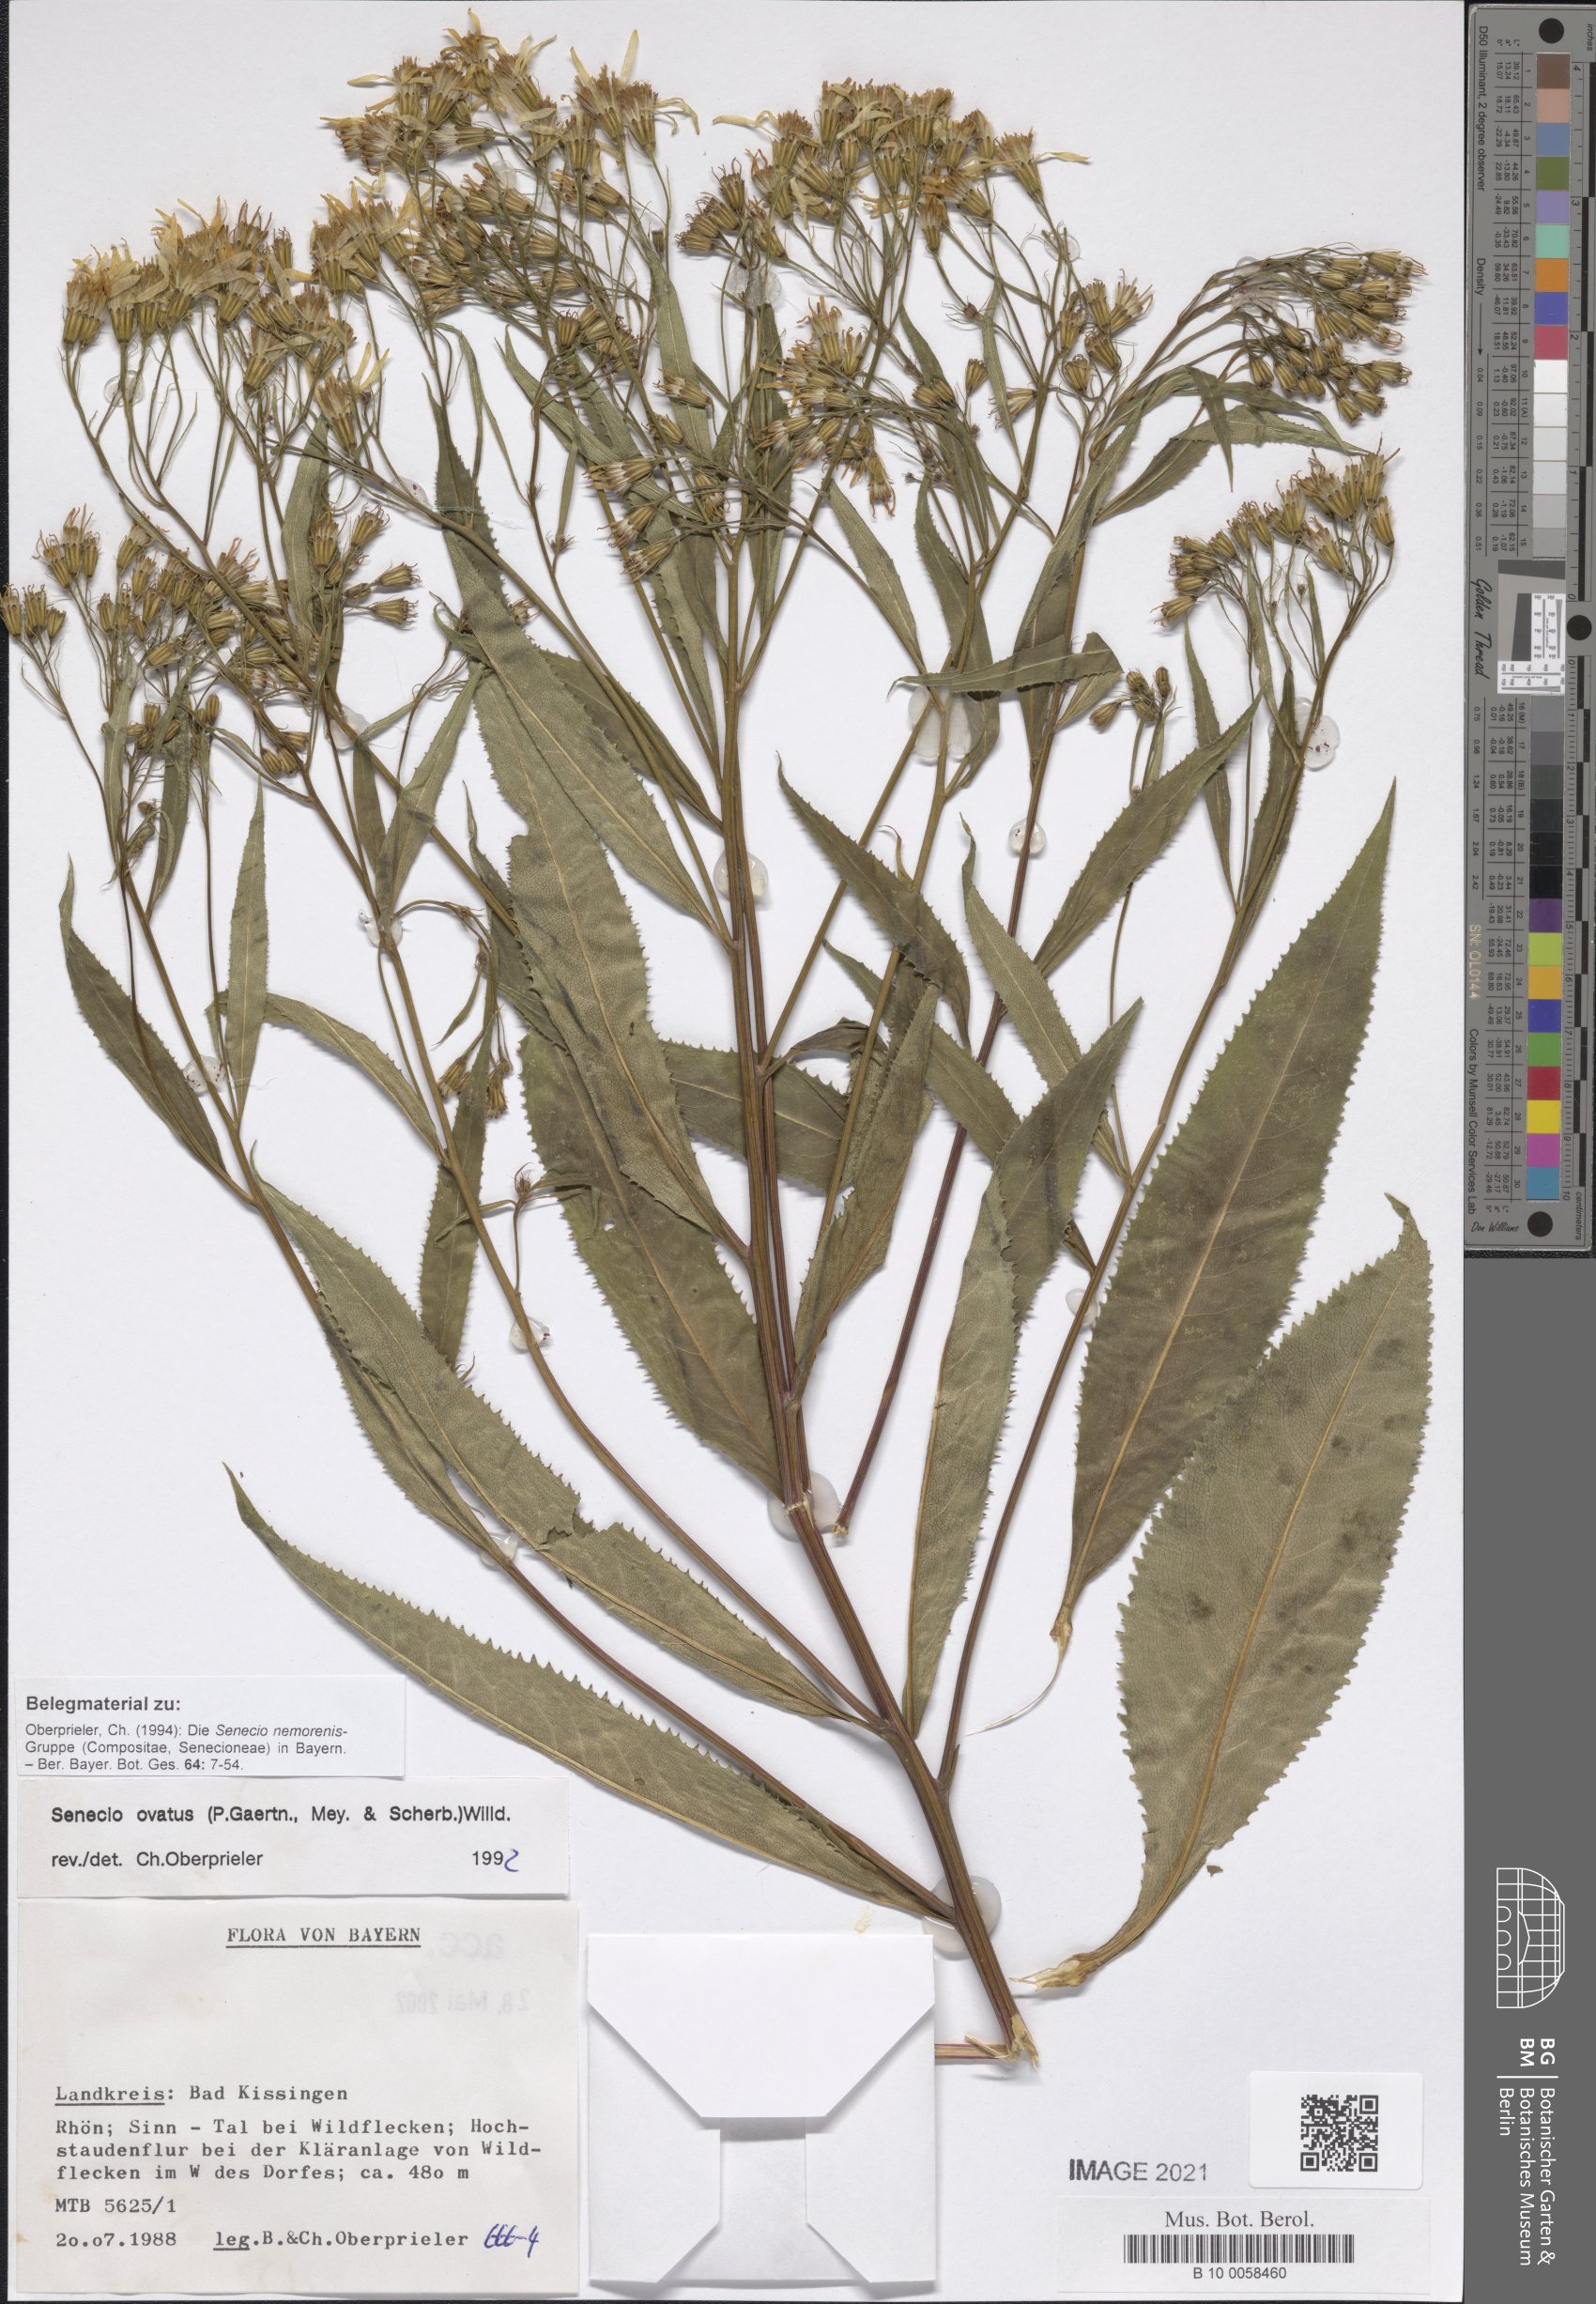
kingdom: Plantae
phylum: Tracheophyta
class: Magnoliopsida
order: Asterales
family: Asteraceae
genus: Senecio
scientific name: Senecio ovatus
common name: Wood ragwort
